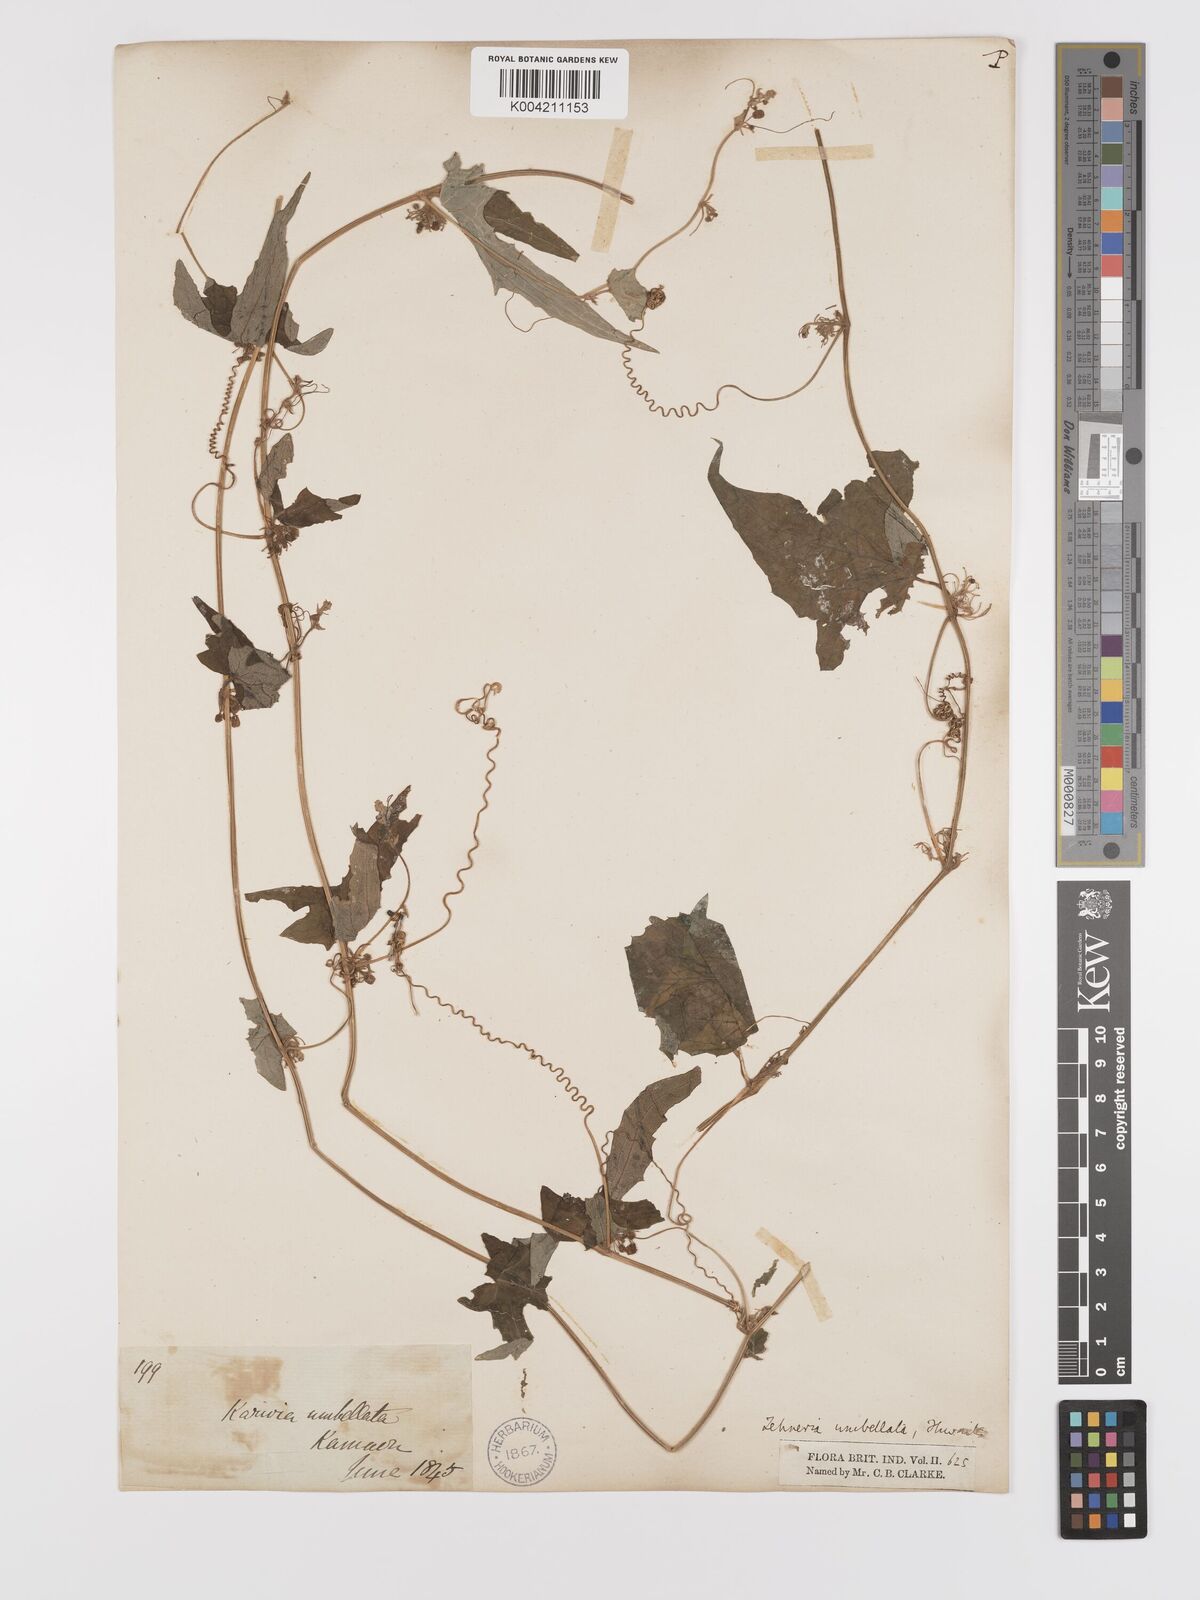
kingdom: Plantae
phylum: Tracheophyta
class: Magnoliopsida
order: Cucurbitales
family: Cucurbitaceae
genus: Solena
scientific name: Solena
